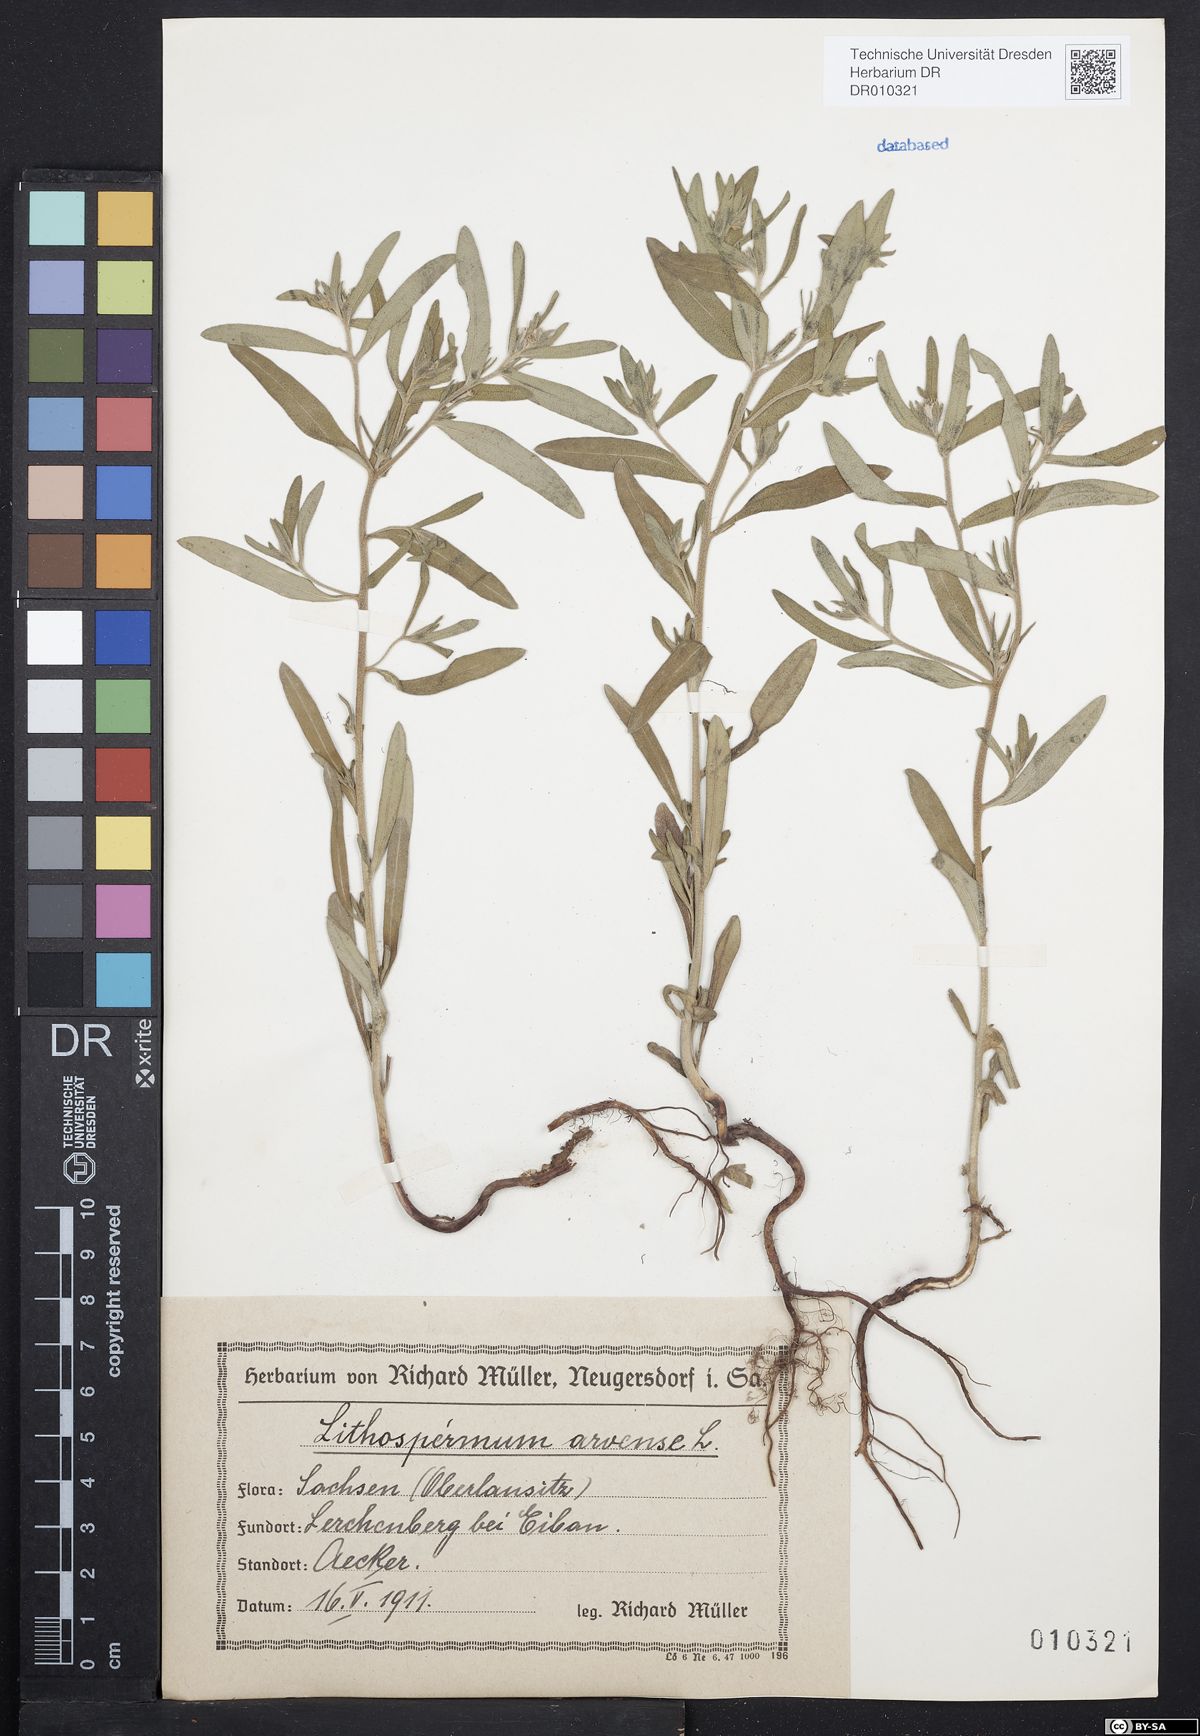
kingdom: Plantae
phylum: Tracheophyta
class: Magnoliopsida
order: Boraginales
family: Boraginaceae
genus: Buglossoides
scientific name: Buglossoides arvensis
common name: Corn gromwell
